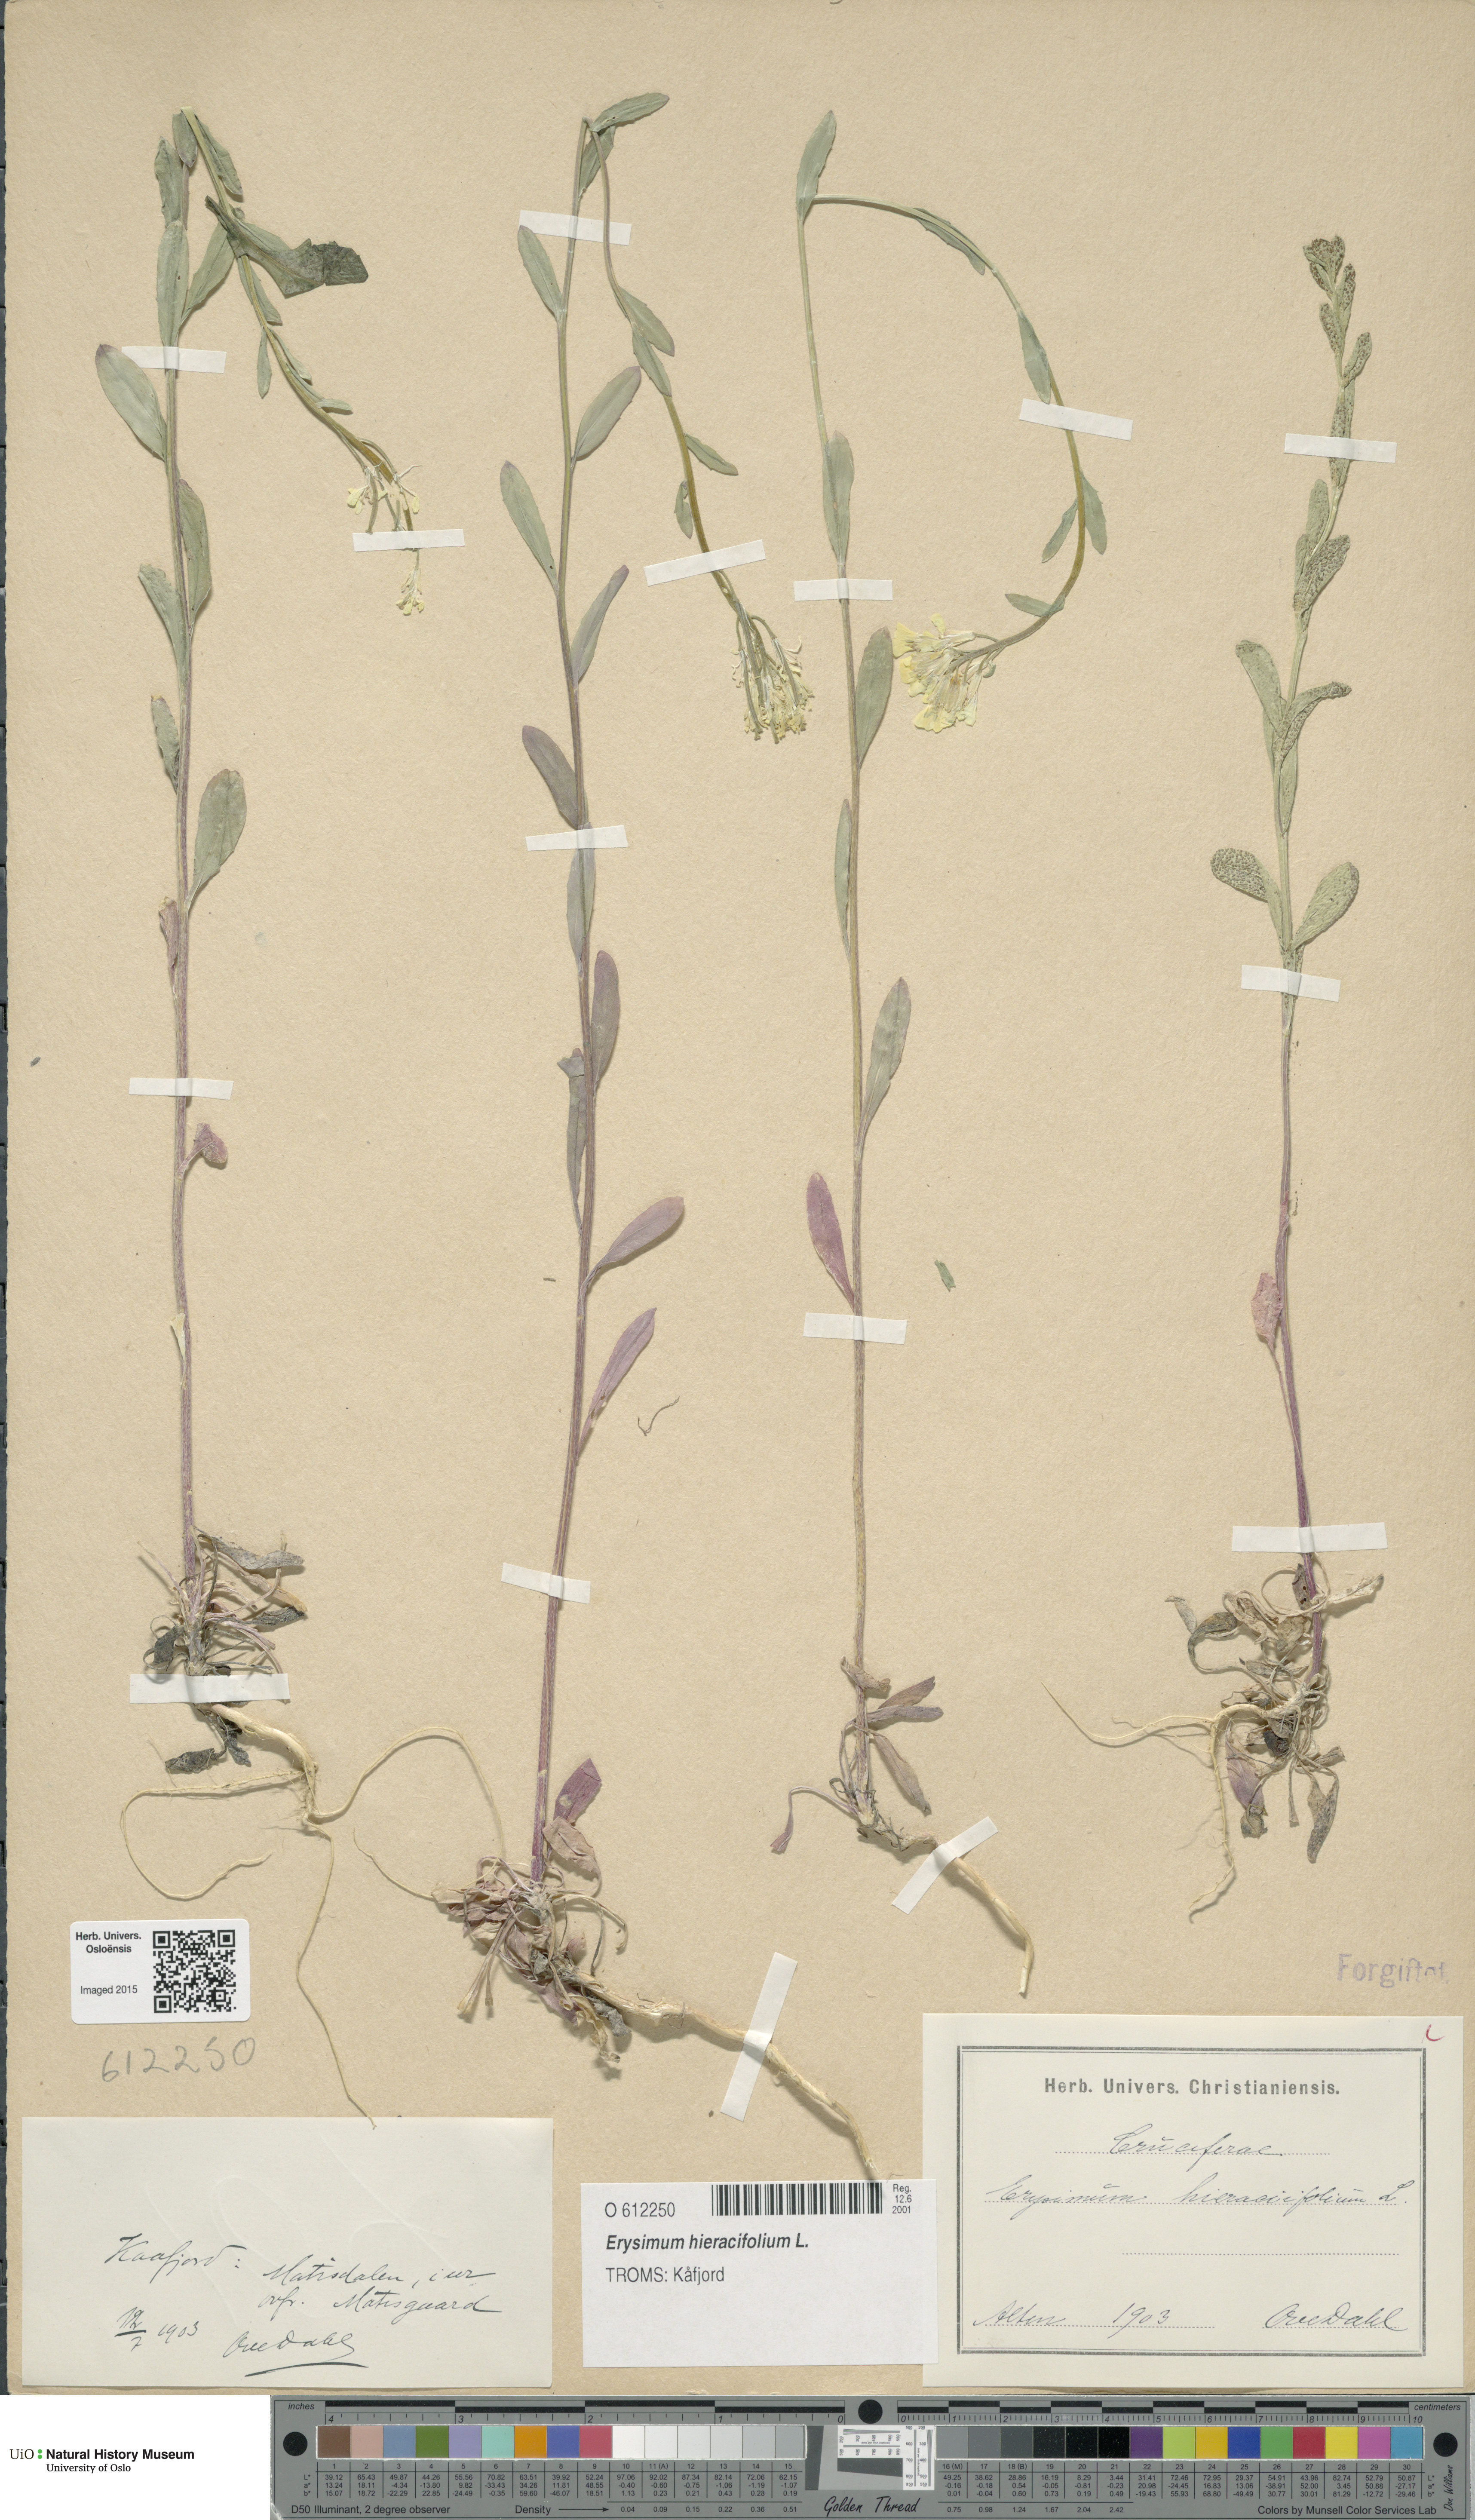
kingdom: Plantae
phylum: Tracheophyta
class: Magnoliopsida
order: Brassicales
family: Brassicaceae
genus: Erysimum
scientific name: Erysimum hieraciifolium
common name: European wallflower
